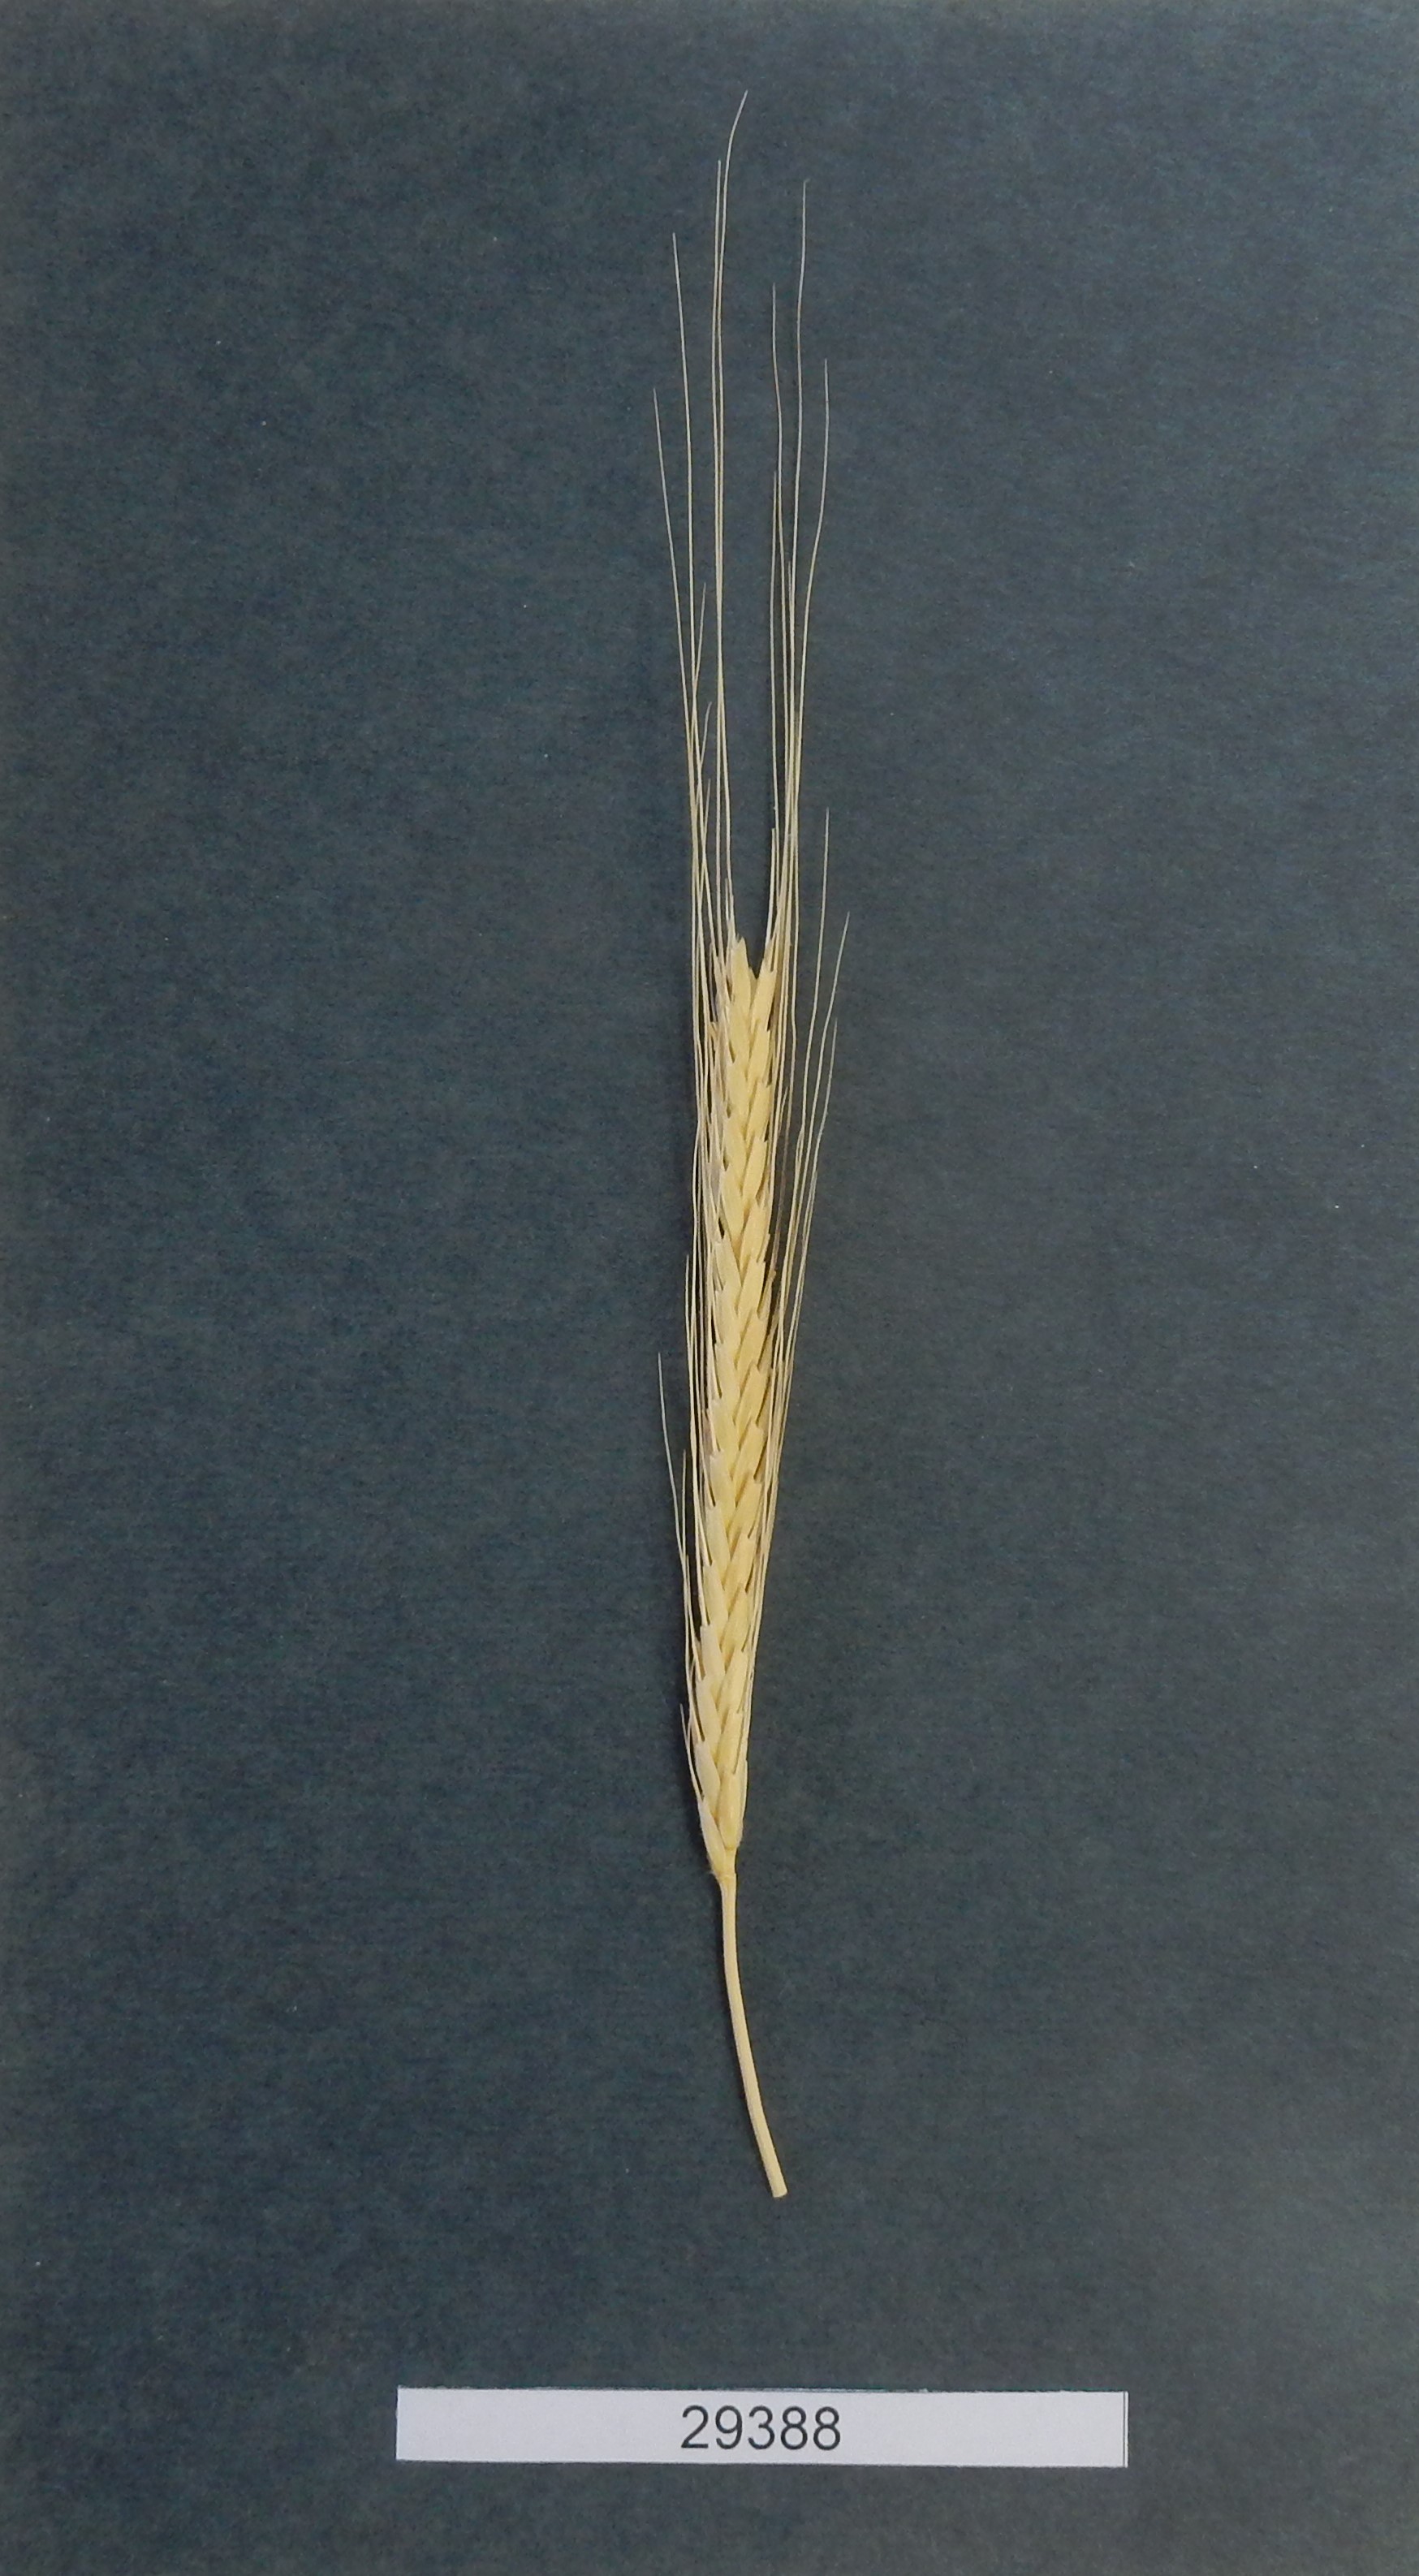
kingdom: Plantae
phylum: Tracheophyta
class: Liliopsida
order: Poales
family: Poaceae
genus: Triticum
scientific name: Triticum monococcum
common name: Wheat
